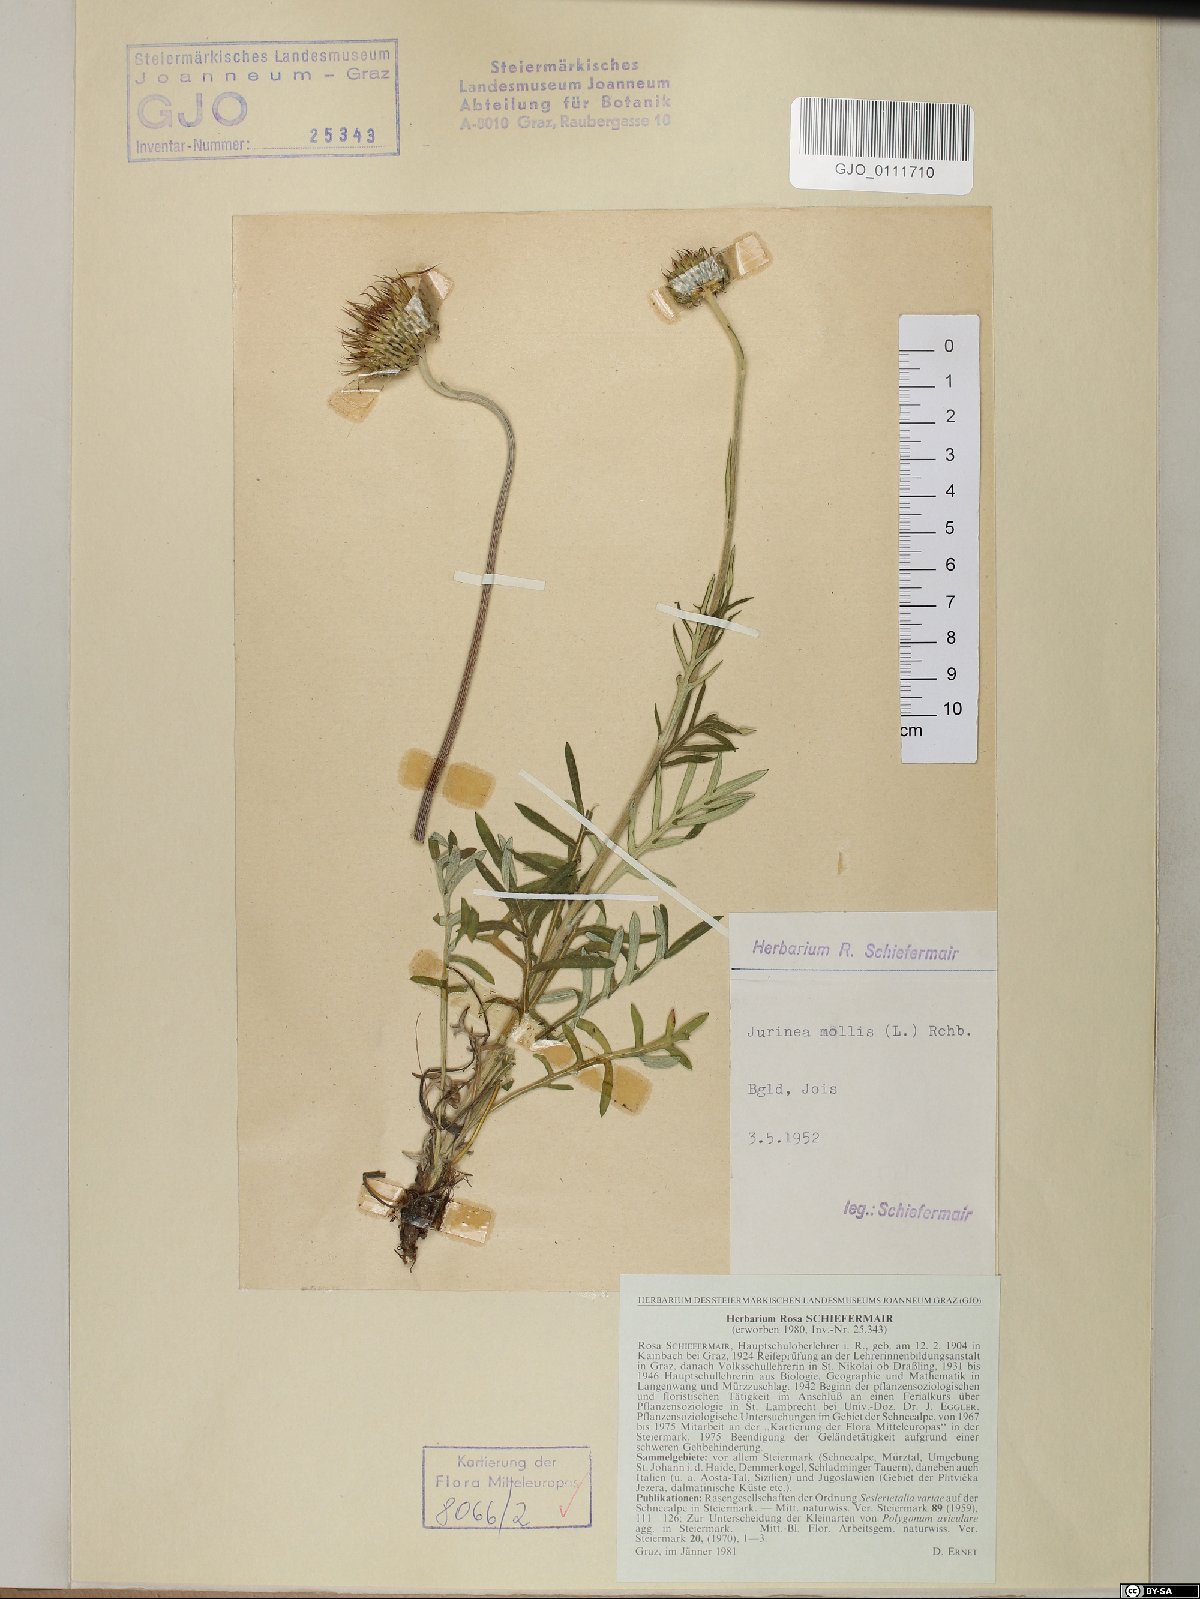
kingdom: Plantae
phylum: Tracheophyta
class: Magnoliopsida
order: Asterales
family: Asteraceae
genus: Jurinea
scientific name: Jurinea mollis
